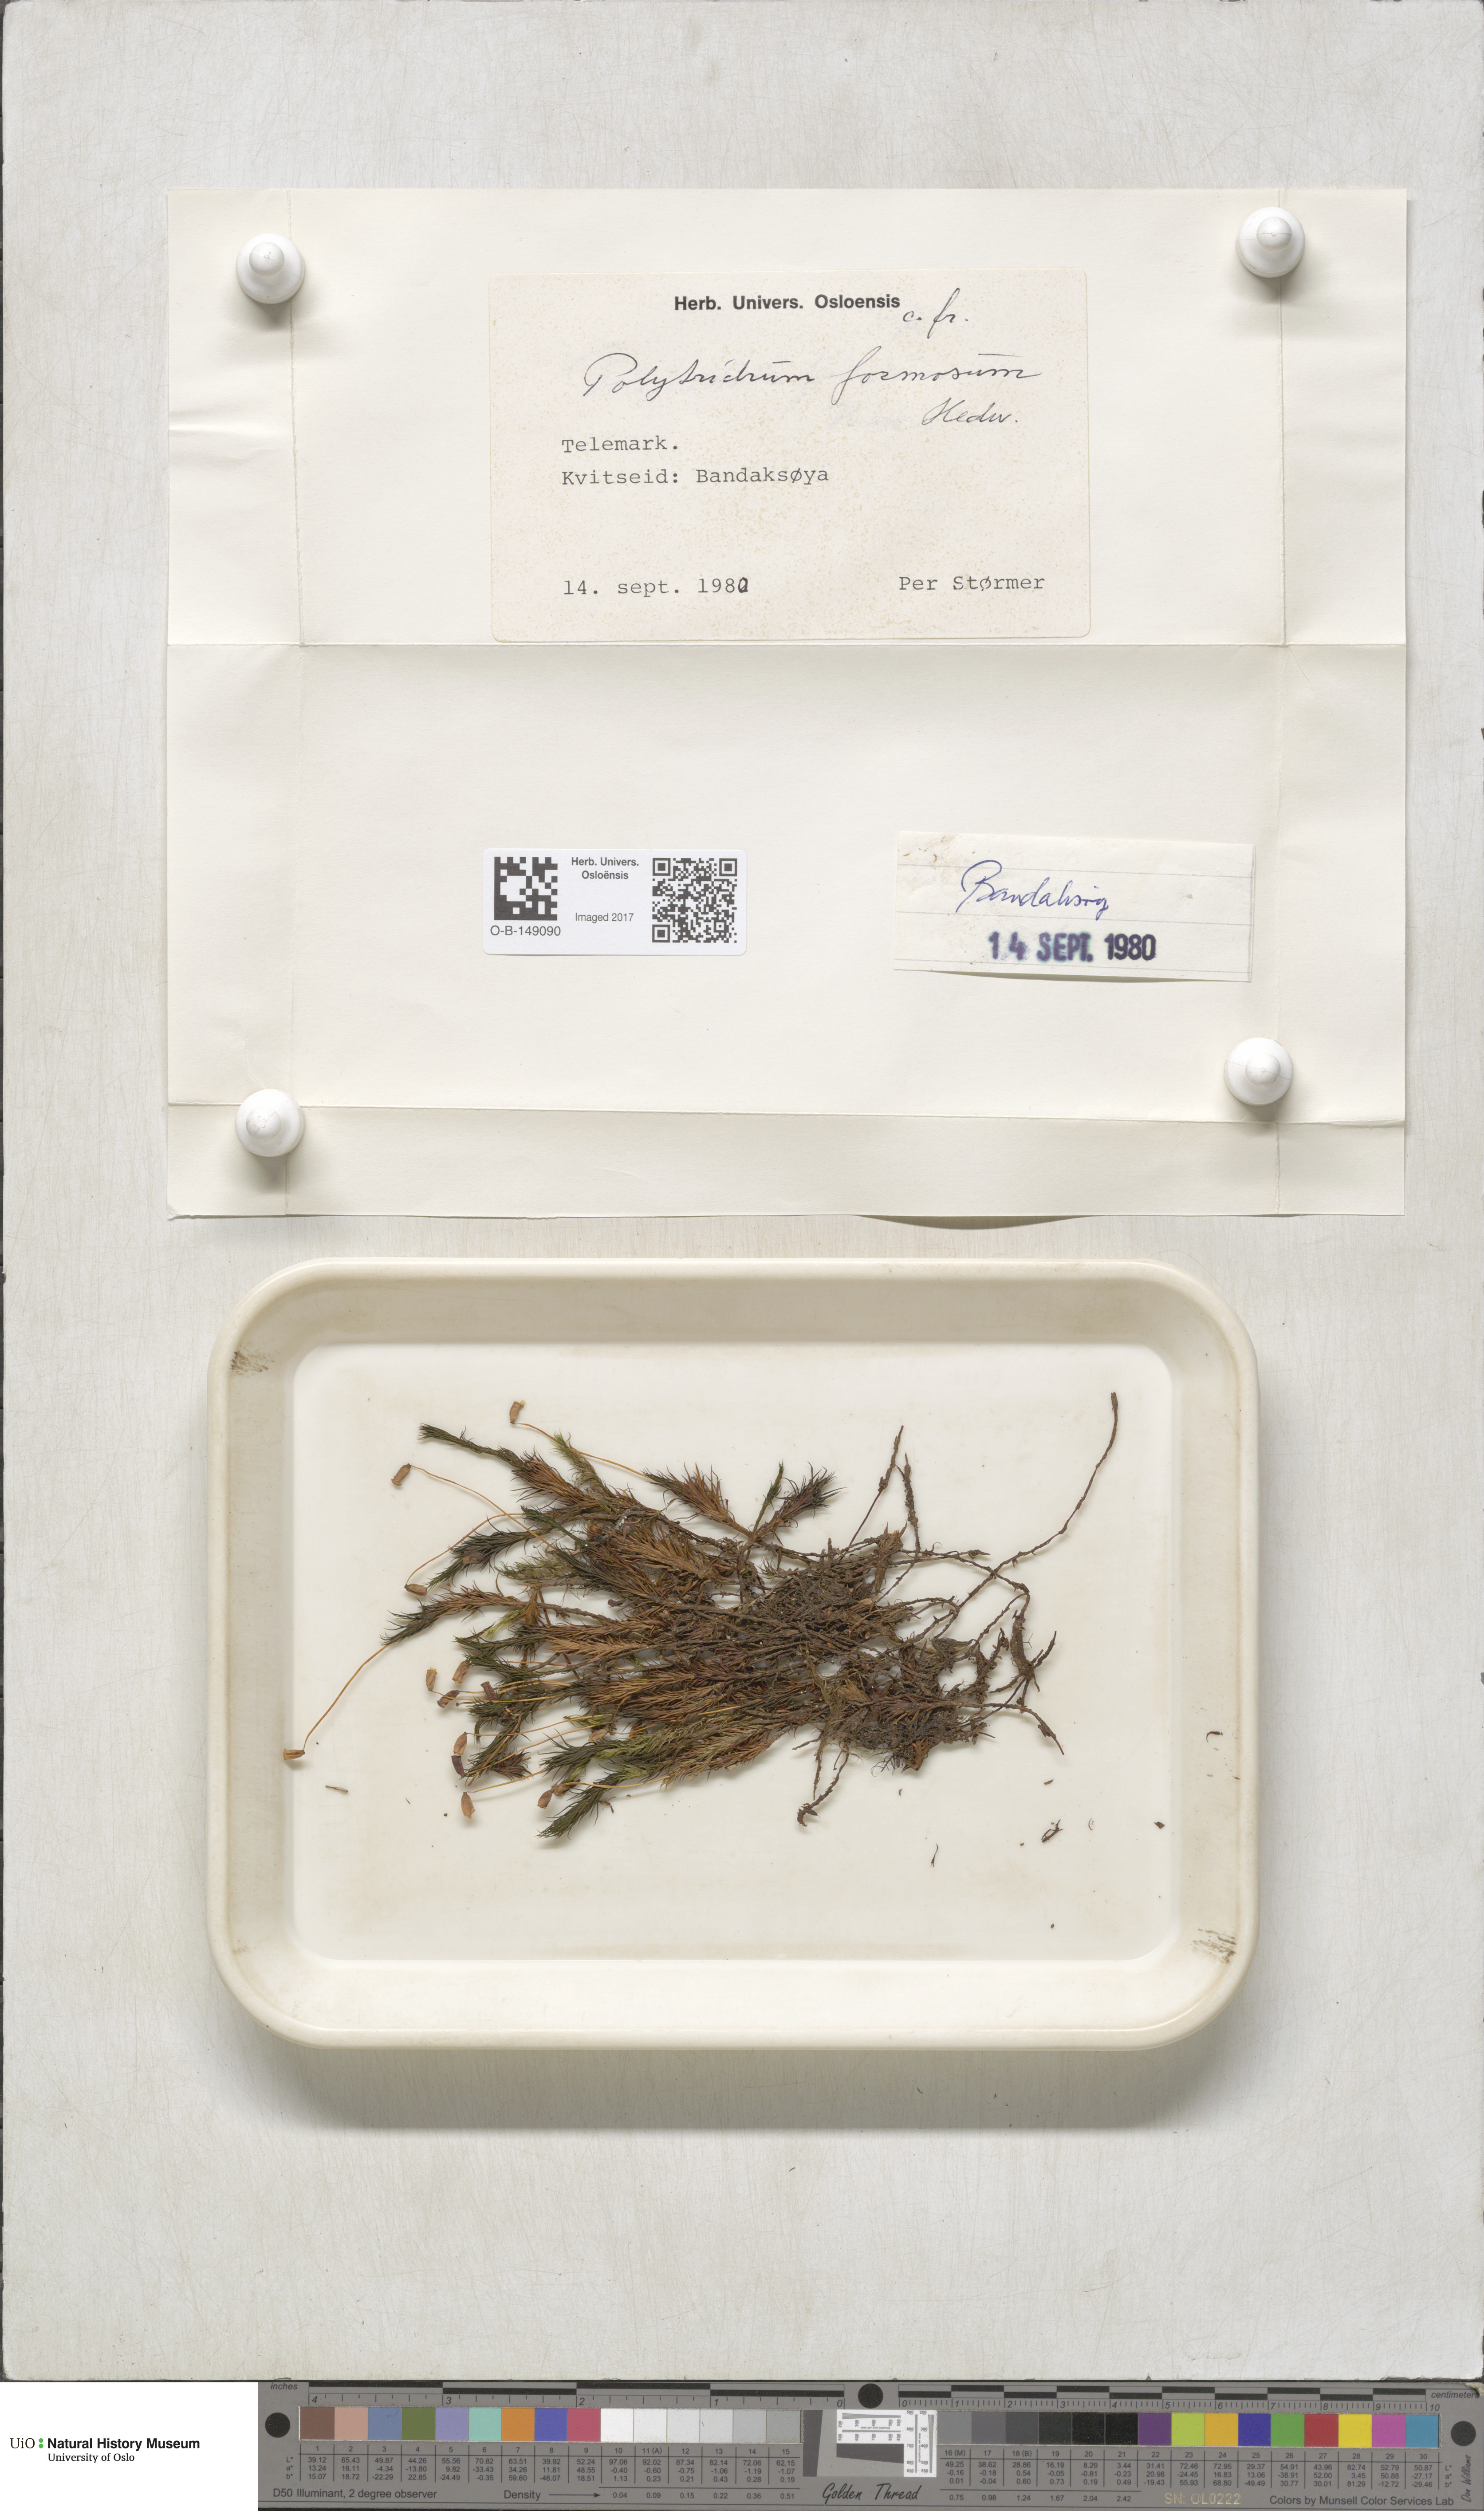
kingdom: Plantae
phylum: Bryophyta
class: Polytrichopsida
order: Polytrichales
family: Polytrichaceae
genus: Polytrichum
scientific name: Polytrichum formosum
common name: Bank haircap moss
